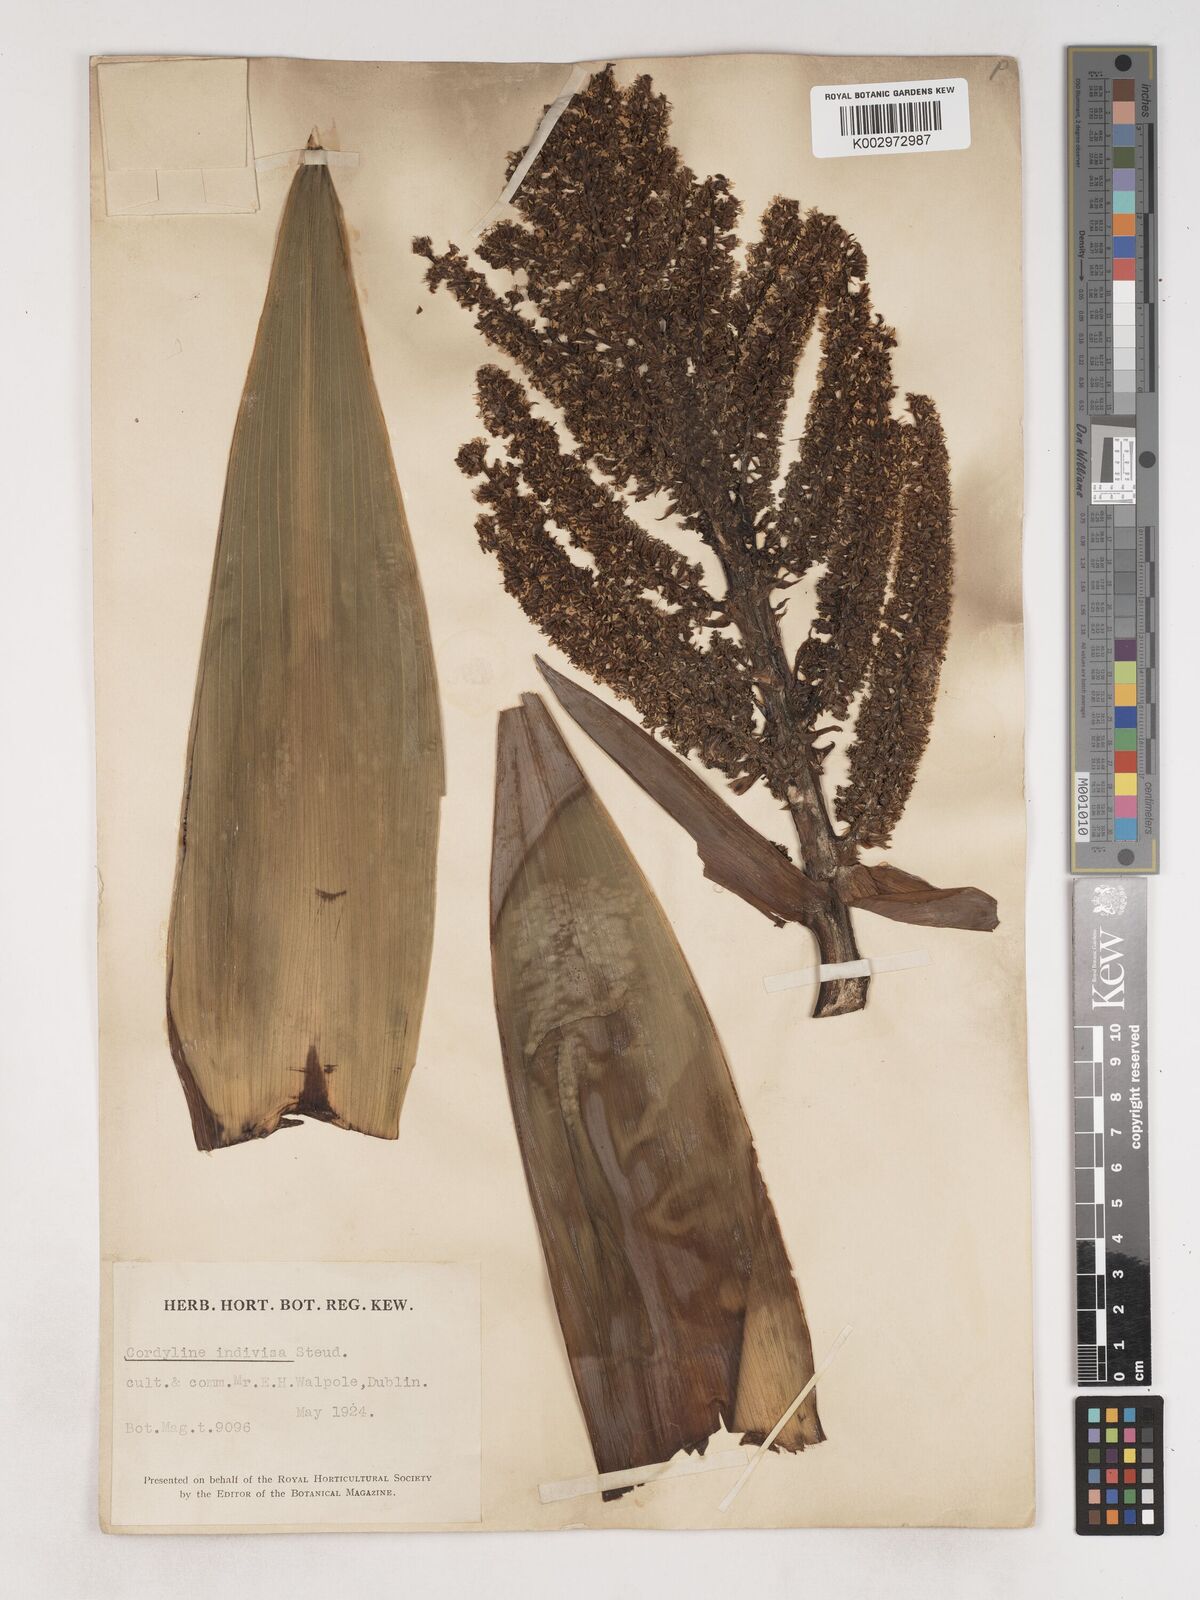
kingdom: Plantae
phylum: Tracheophyta
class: Liliopsida
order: Asparagales
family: Asparagaceae
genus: Cordyline
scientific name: Cordyline
